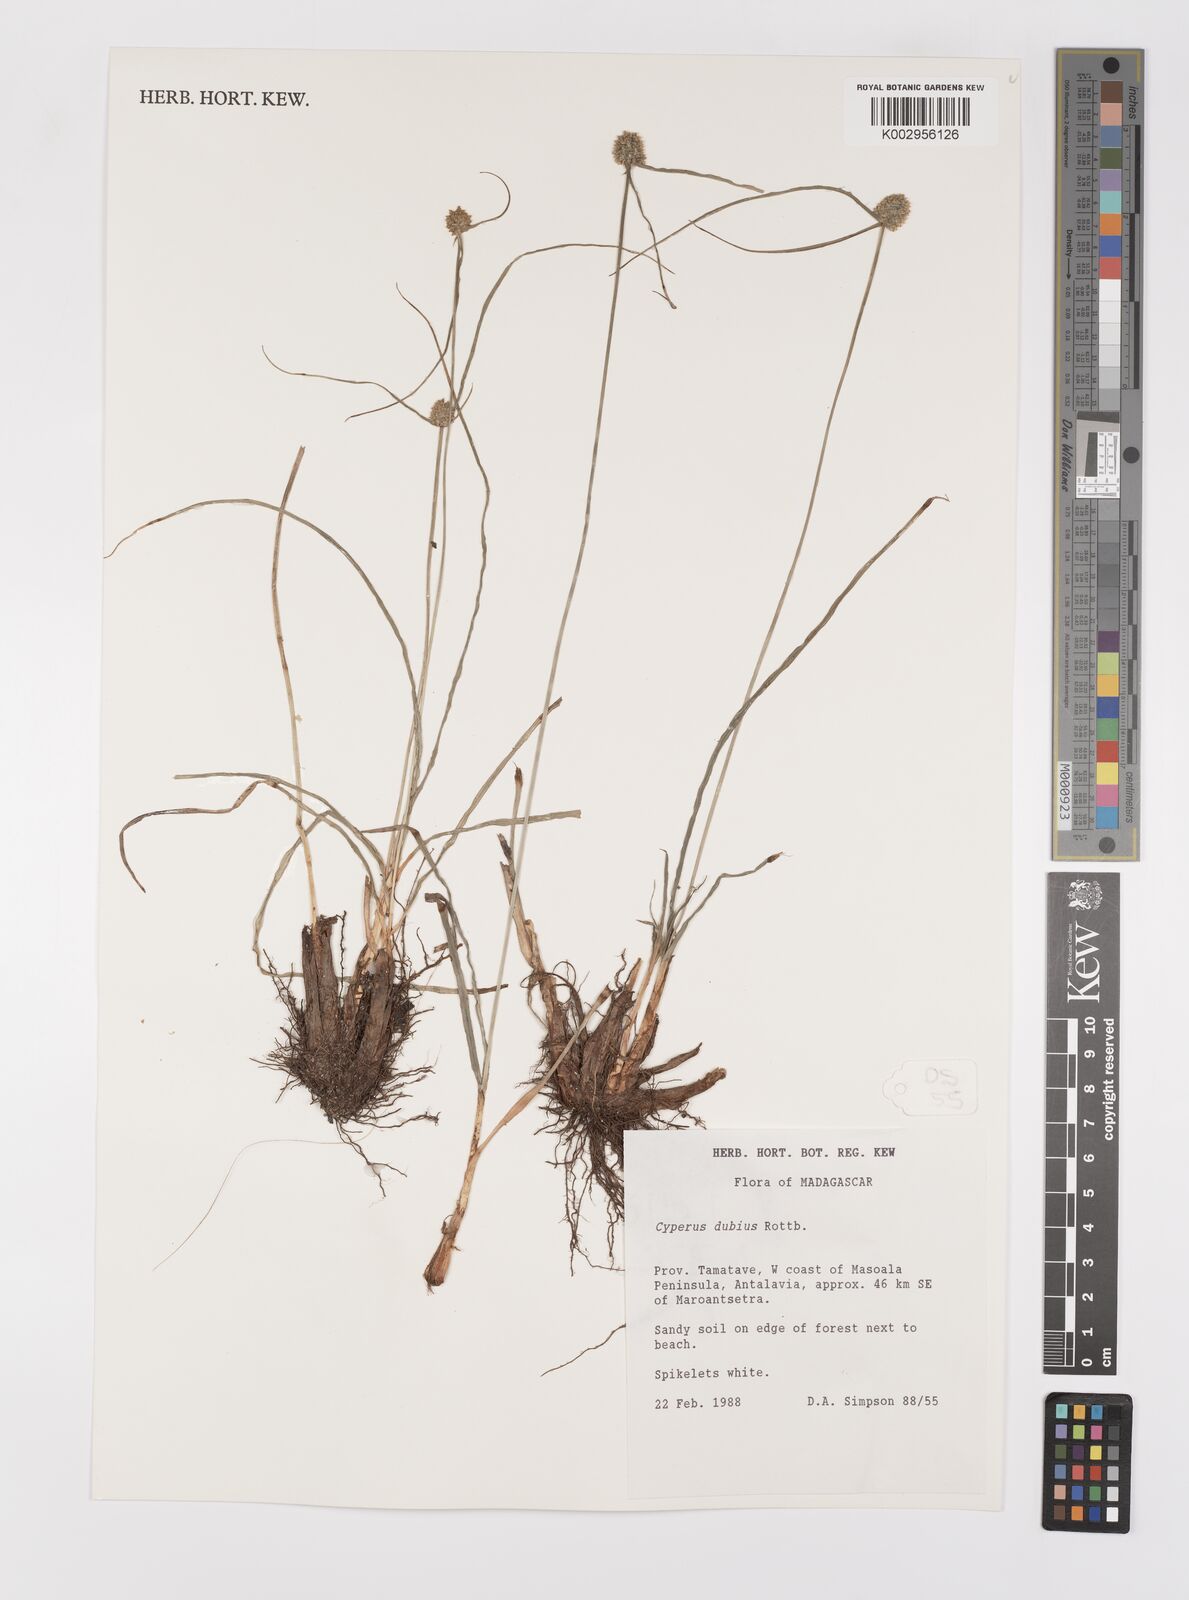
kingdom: Plantae
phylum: Tracheophyta
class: Liliopsida
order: Poales
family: Cyperaceae
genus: Cyperus
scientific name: Cyperus dubius
